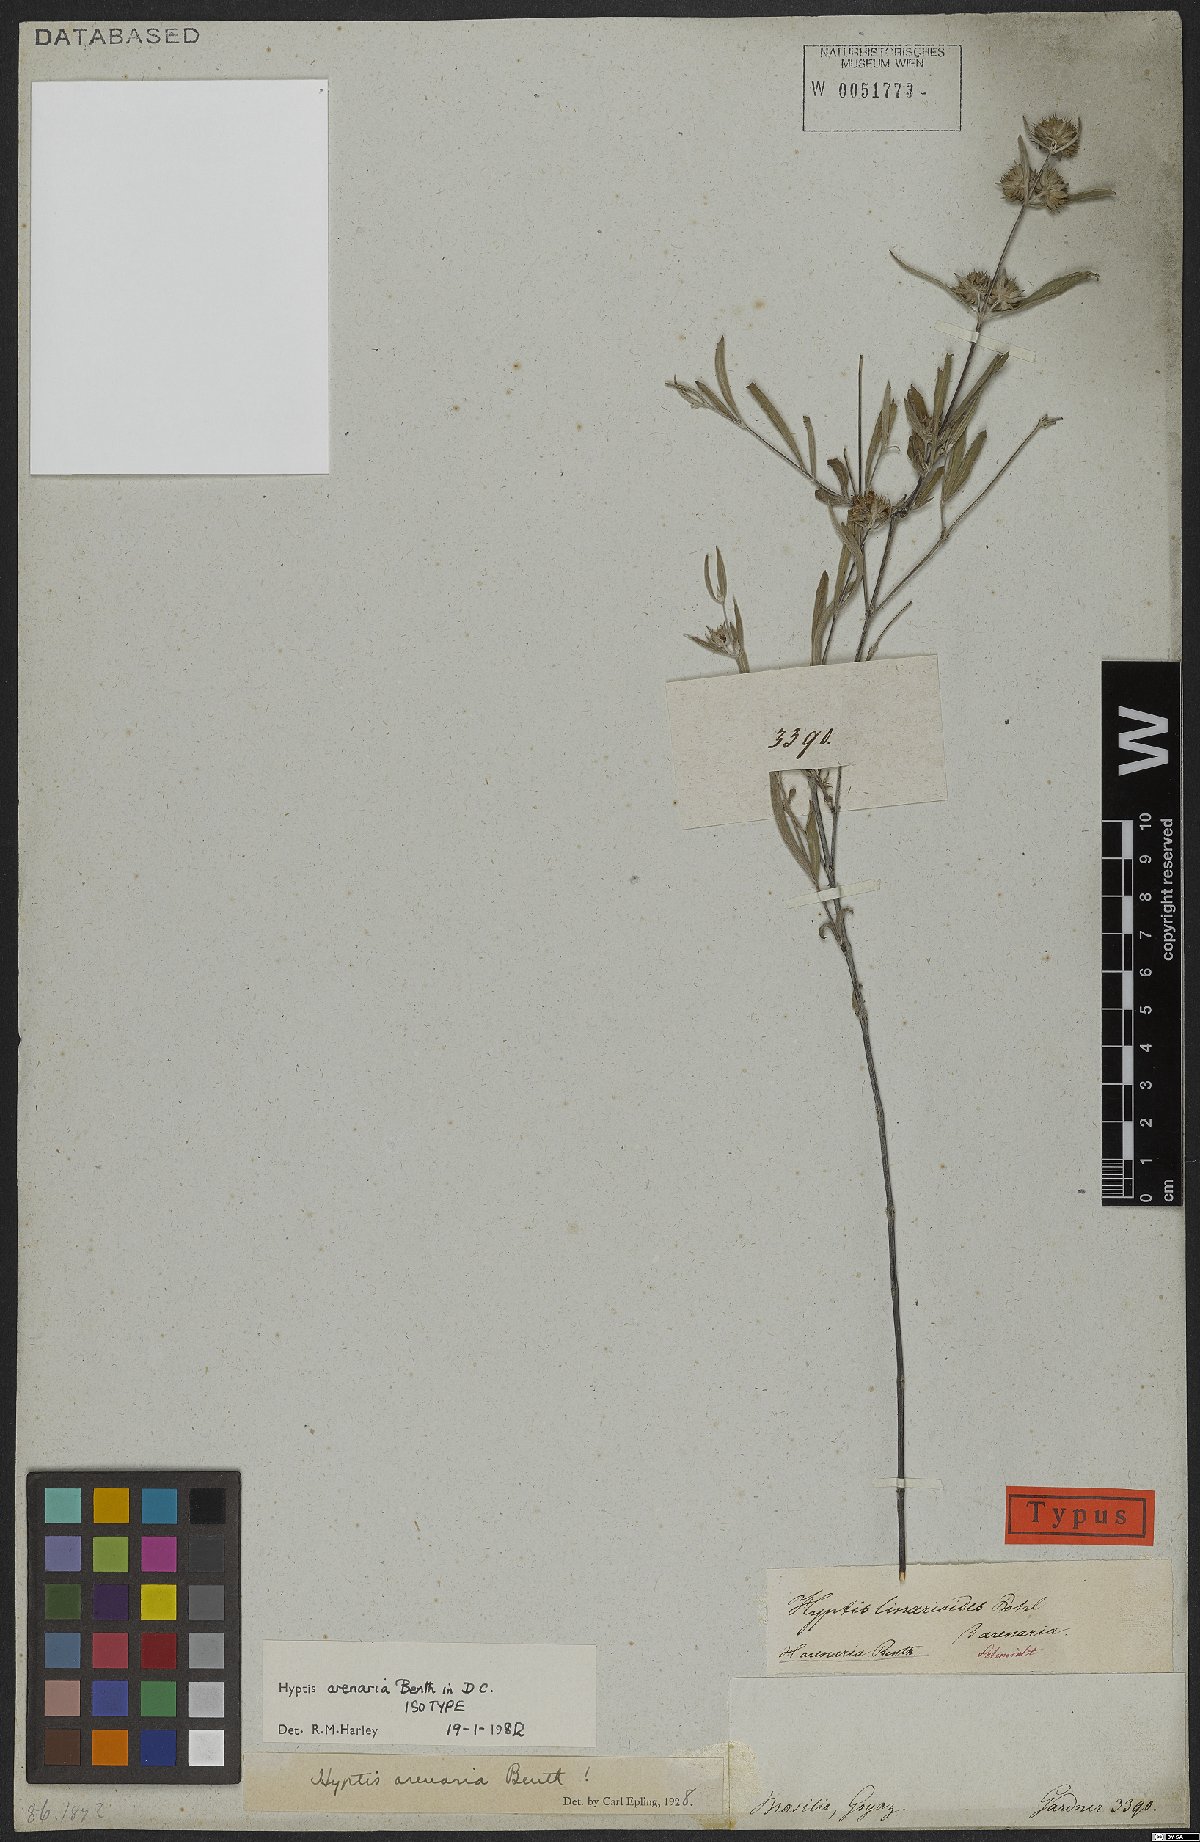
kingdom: Plantae
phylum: Tracheophyta
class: Magnoliopsida
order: Lamiales
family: Lamiaceae
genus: Hyptis
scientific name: Hyptis arenaria
